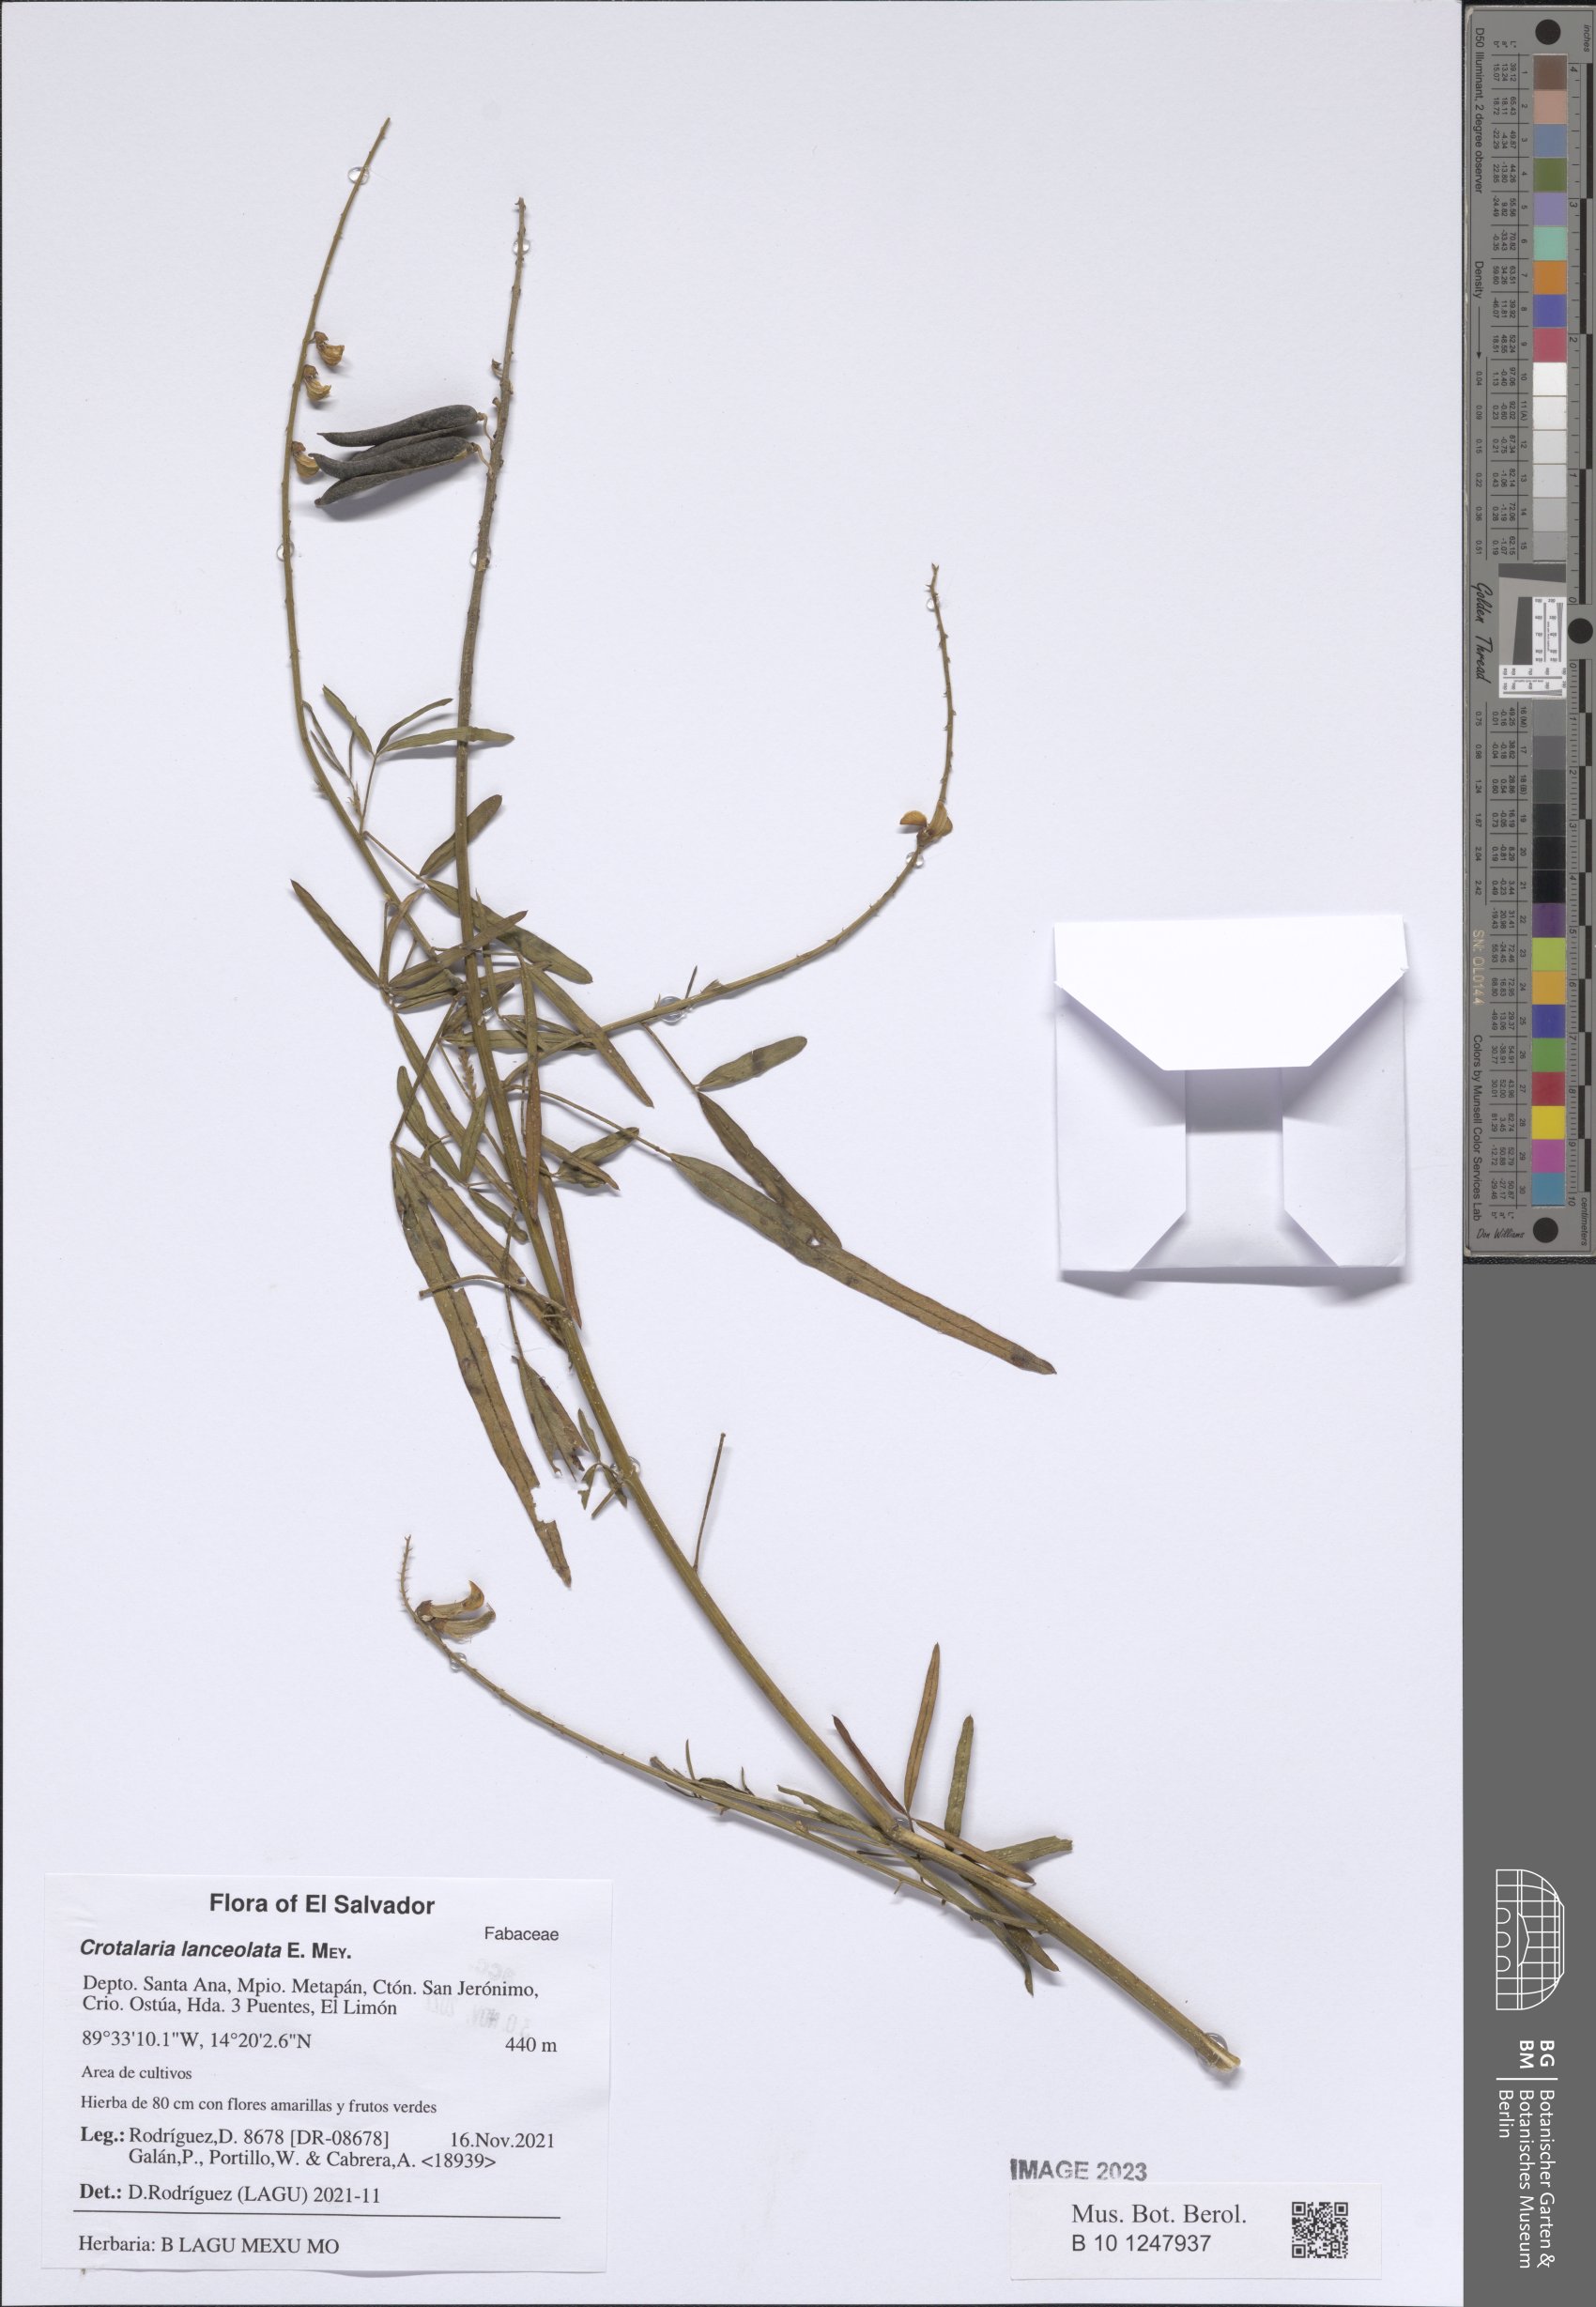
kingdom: Plantae
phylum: Tracheophyta
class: Magnoliopsida
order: Fabales
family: Fabaceae
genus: Crotalaria
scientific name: Crotalaria lanceolata
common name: Lanceleaf rattlebox
